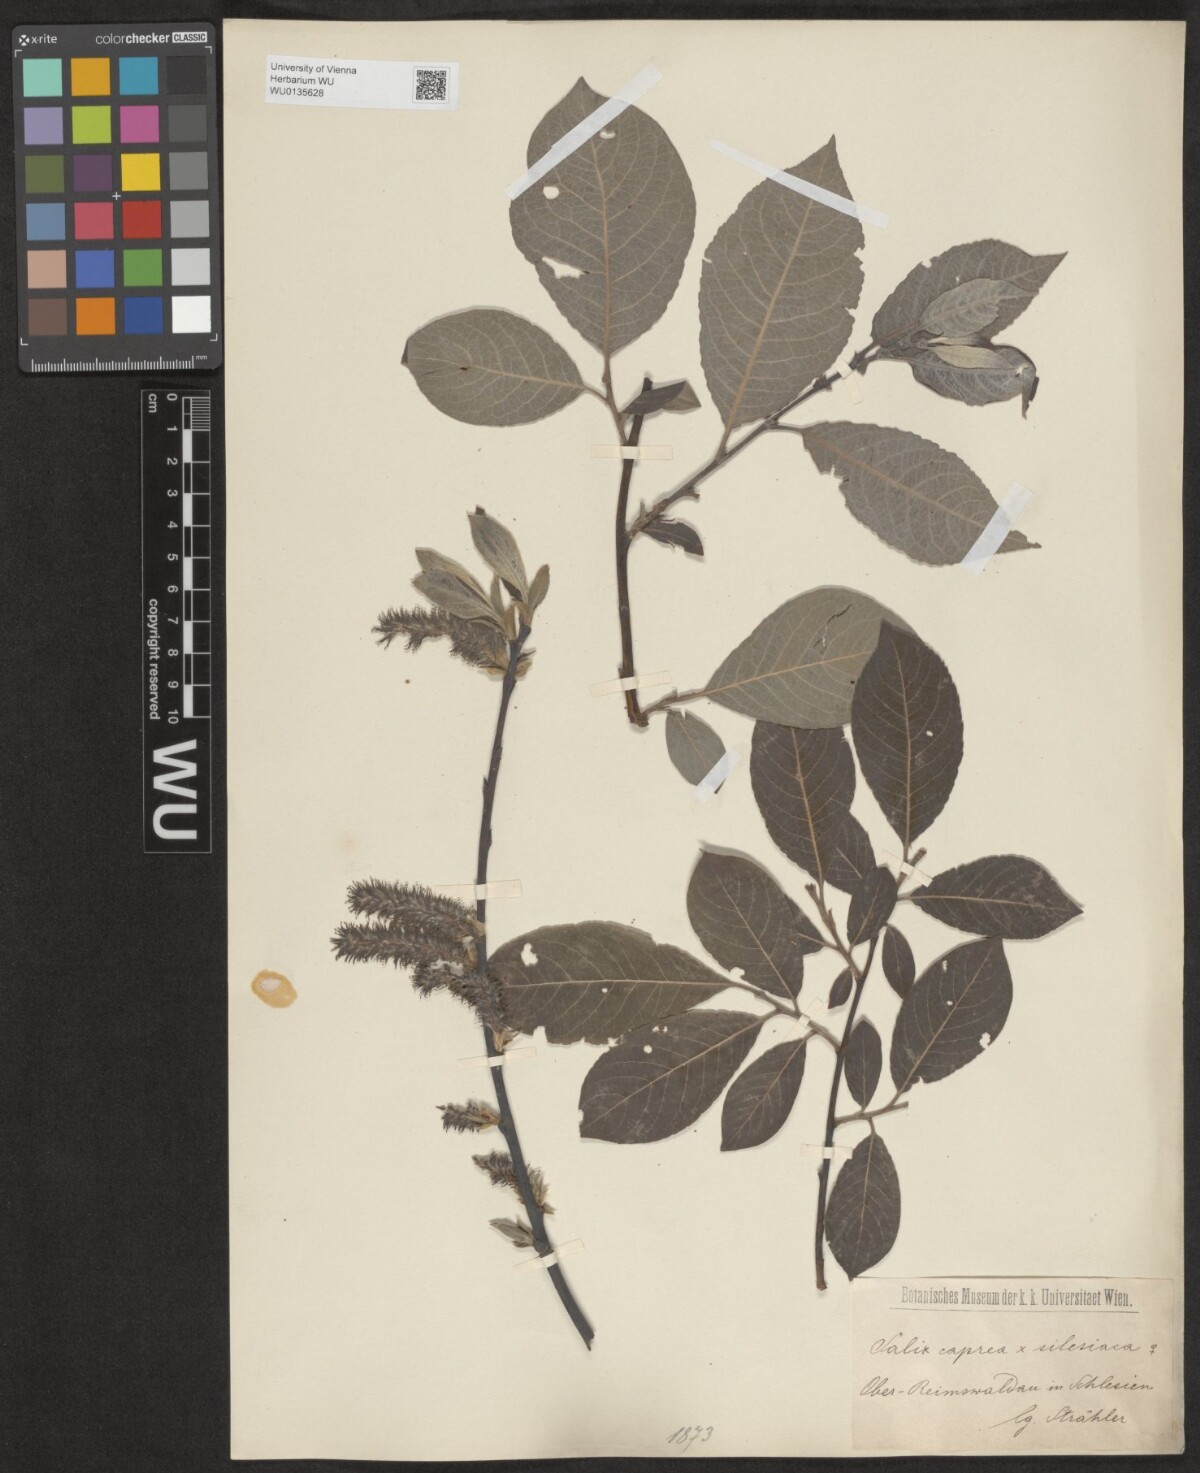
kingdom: Plantae
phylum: Tracheophyta
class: Magnoliopsida
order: Malpighiales
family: Salicaceae
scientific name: Salicaceae
